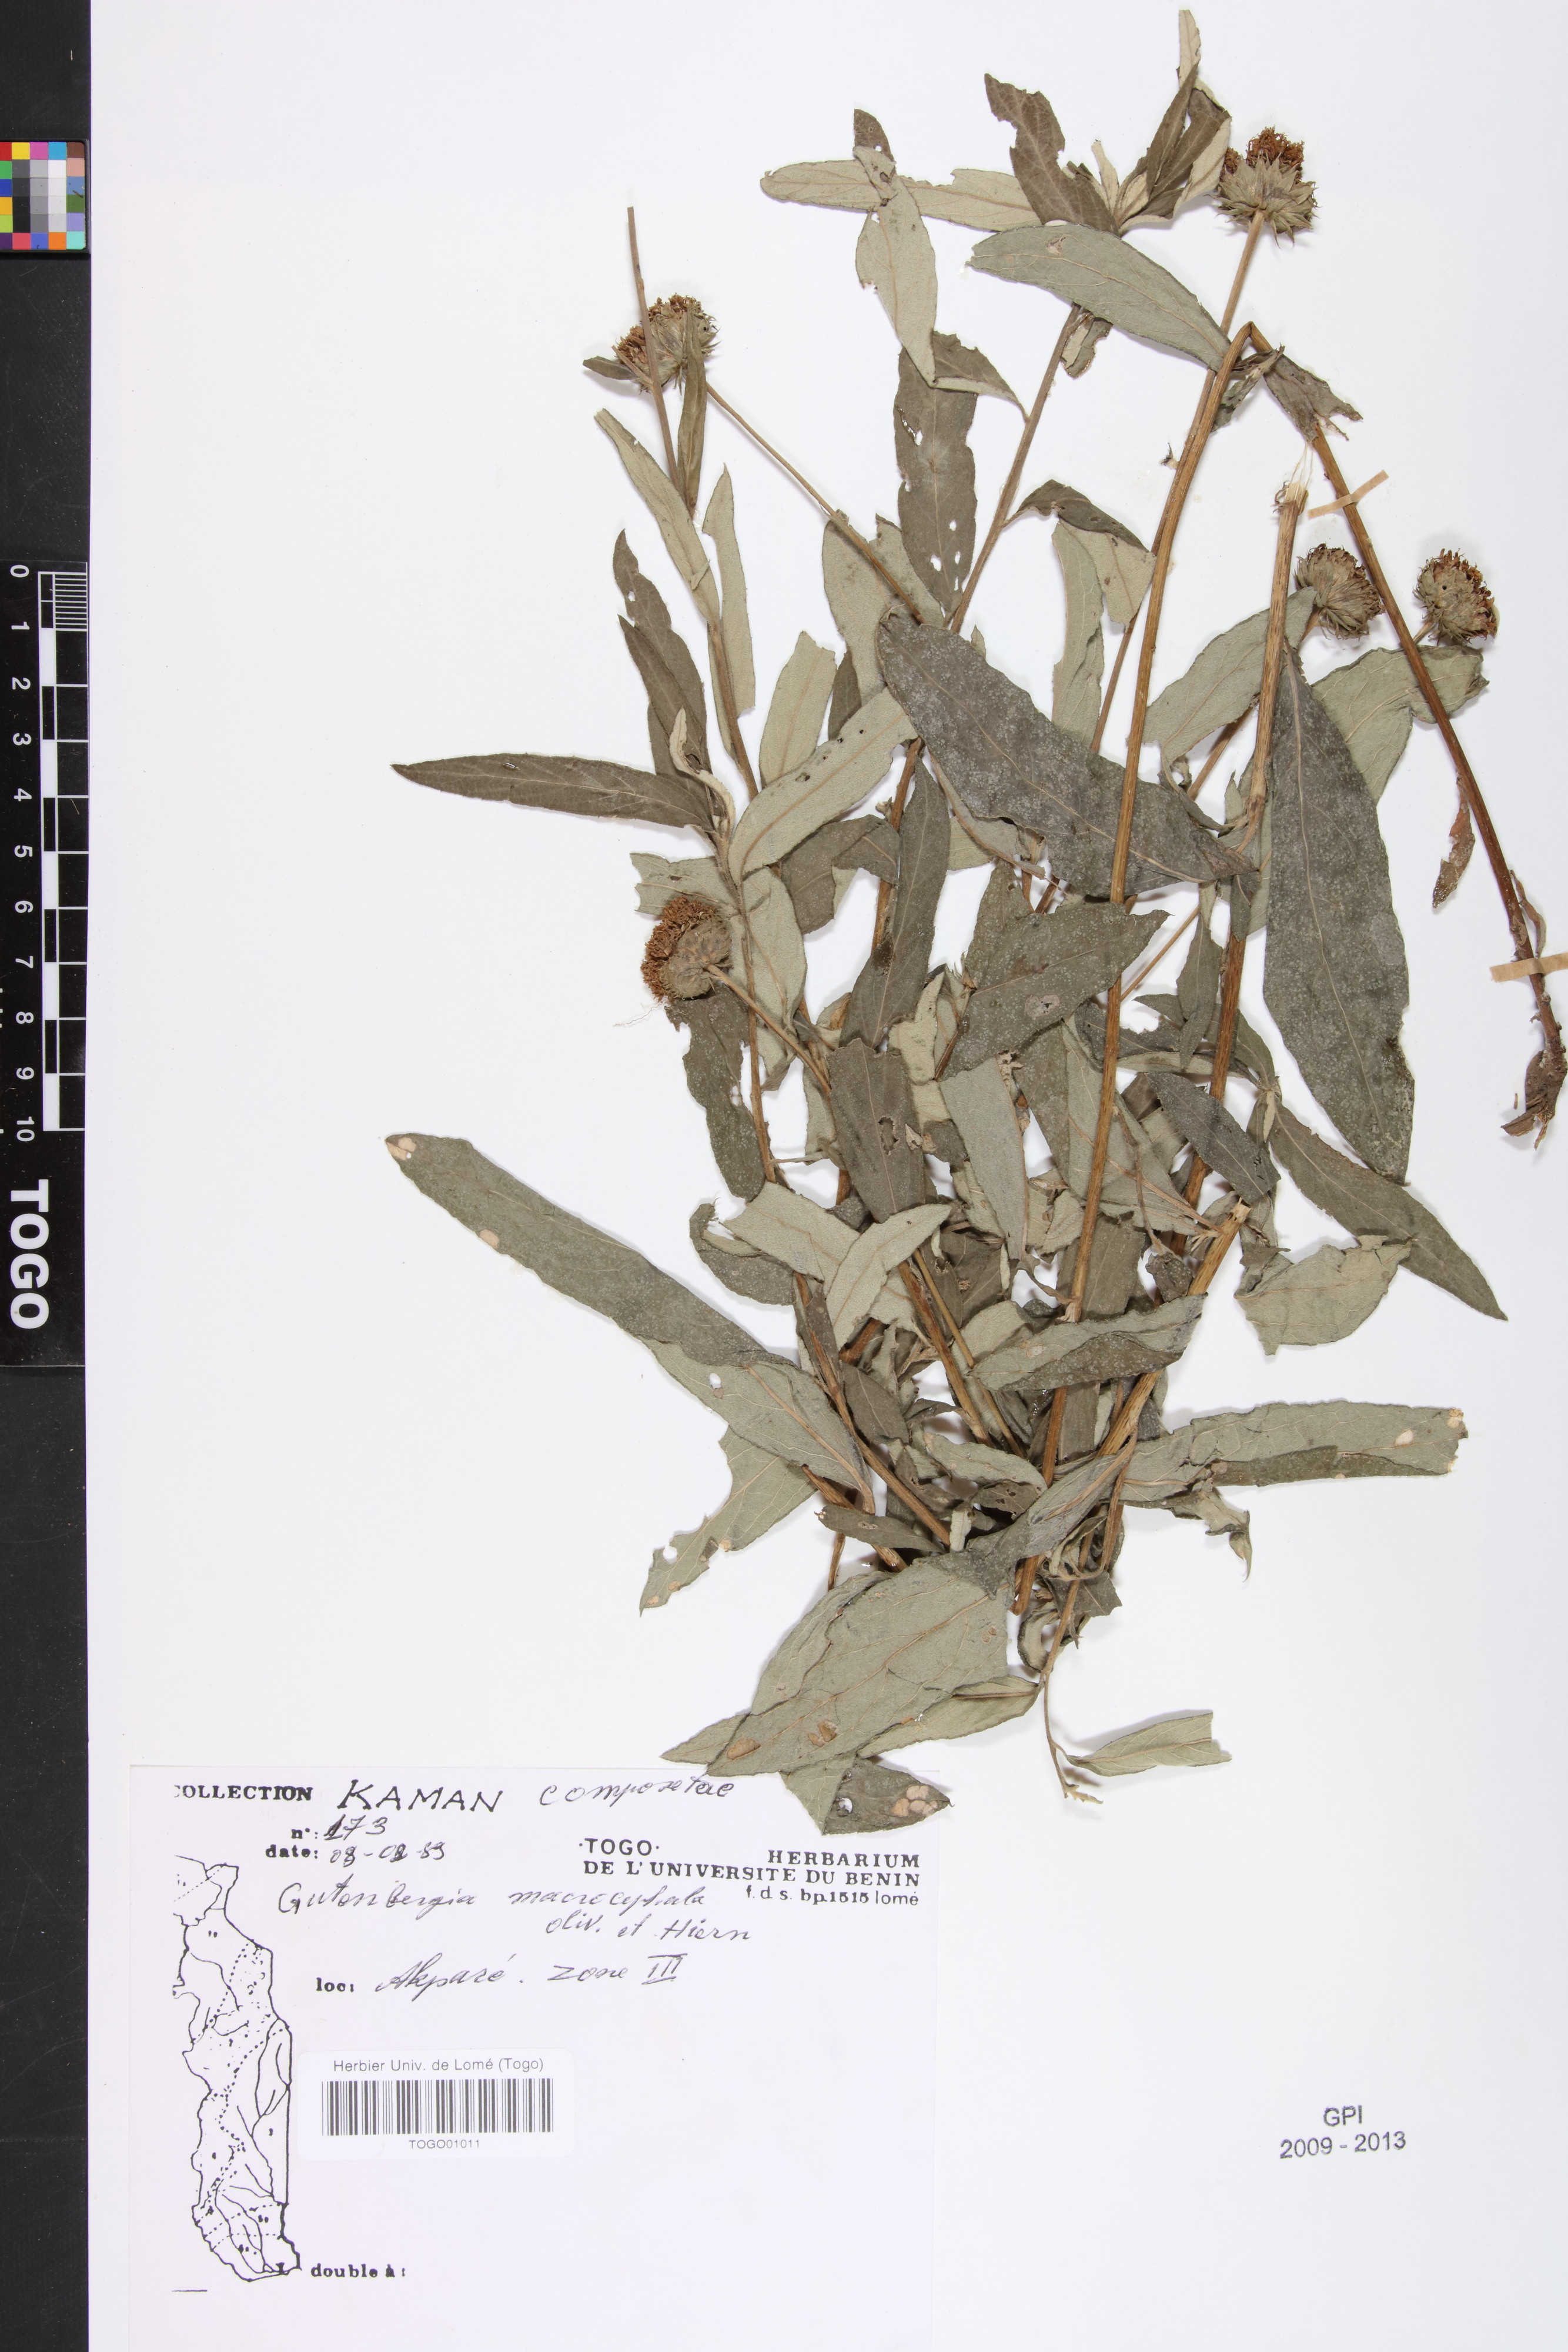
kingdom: Plantae
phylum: Tracheophyta
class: Magnoliopsida
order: Asterales
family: Asteraceae
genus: Kinghamia
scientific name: Kinghamia macrocephala
